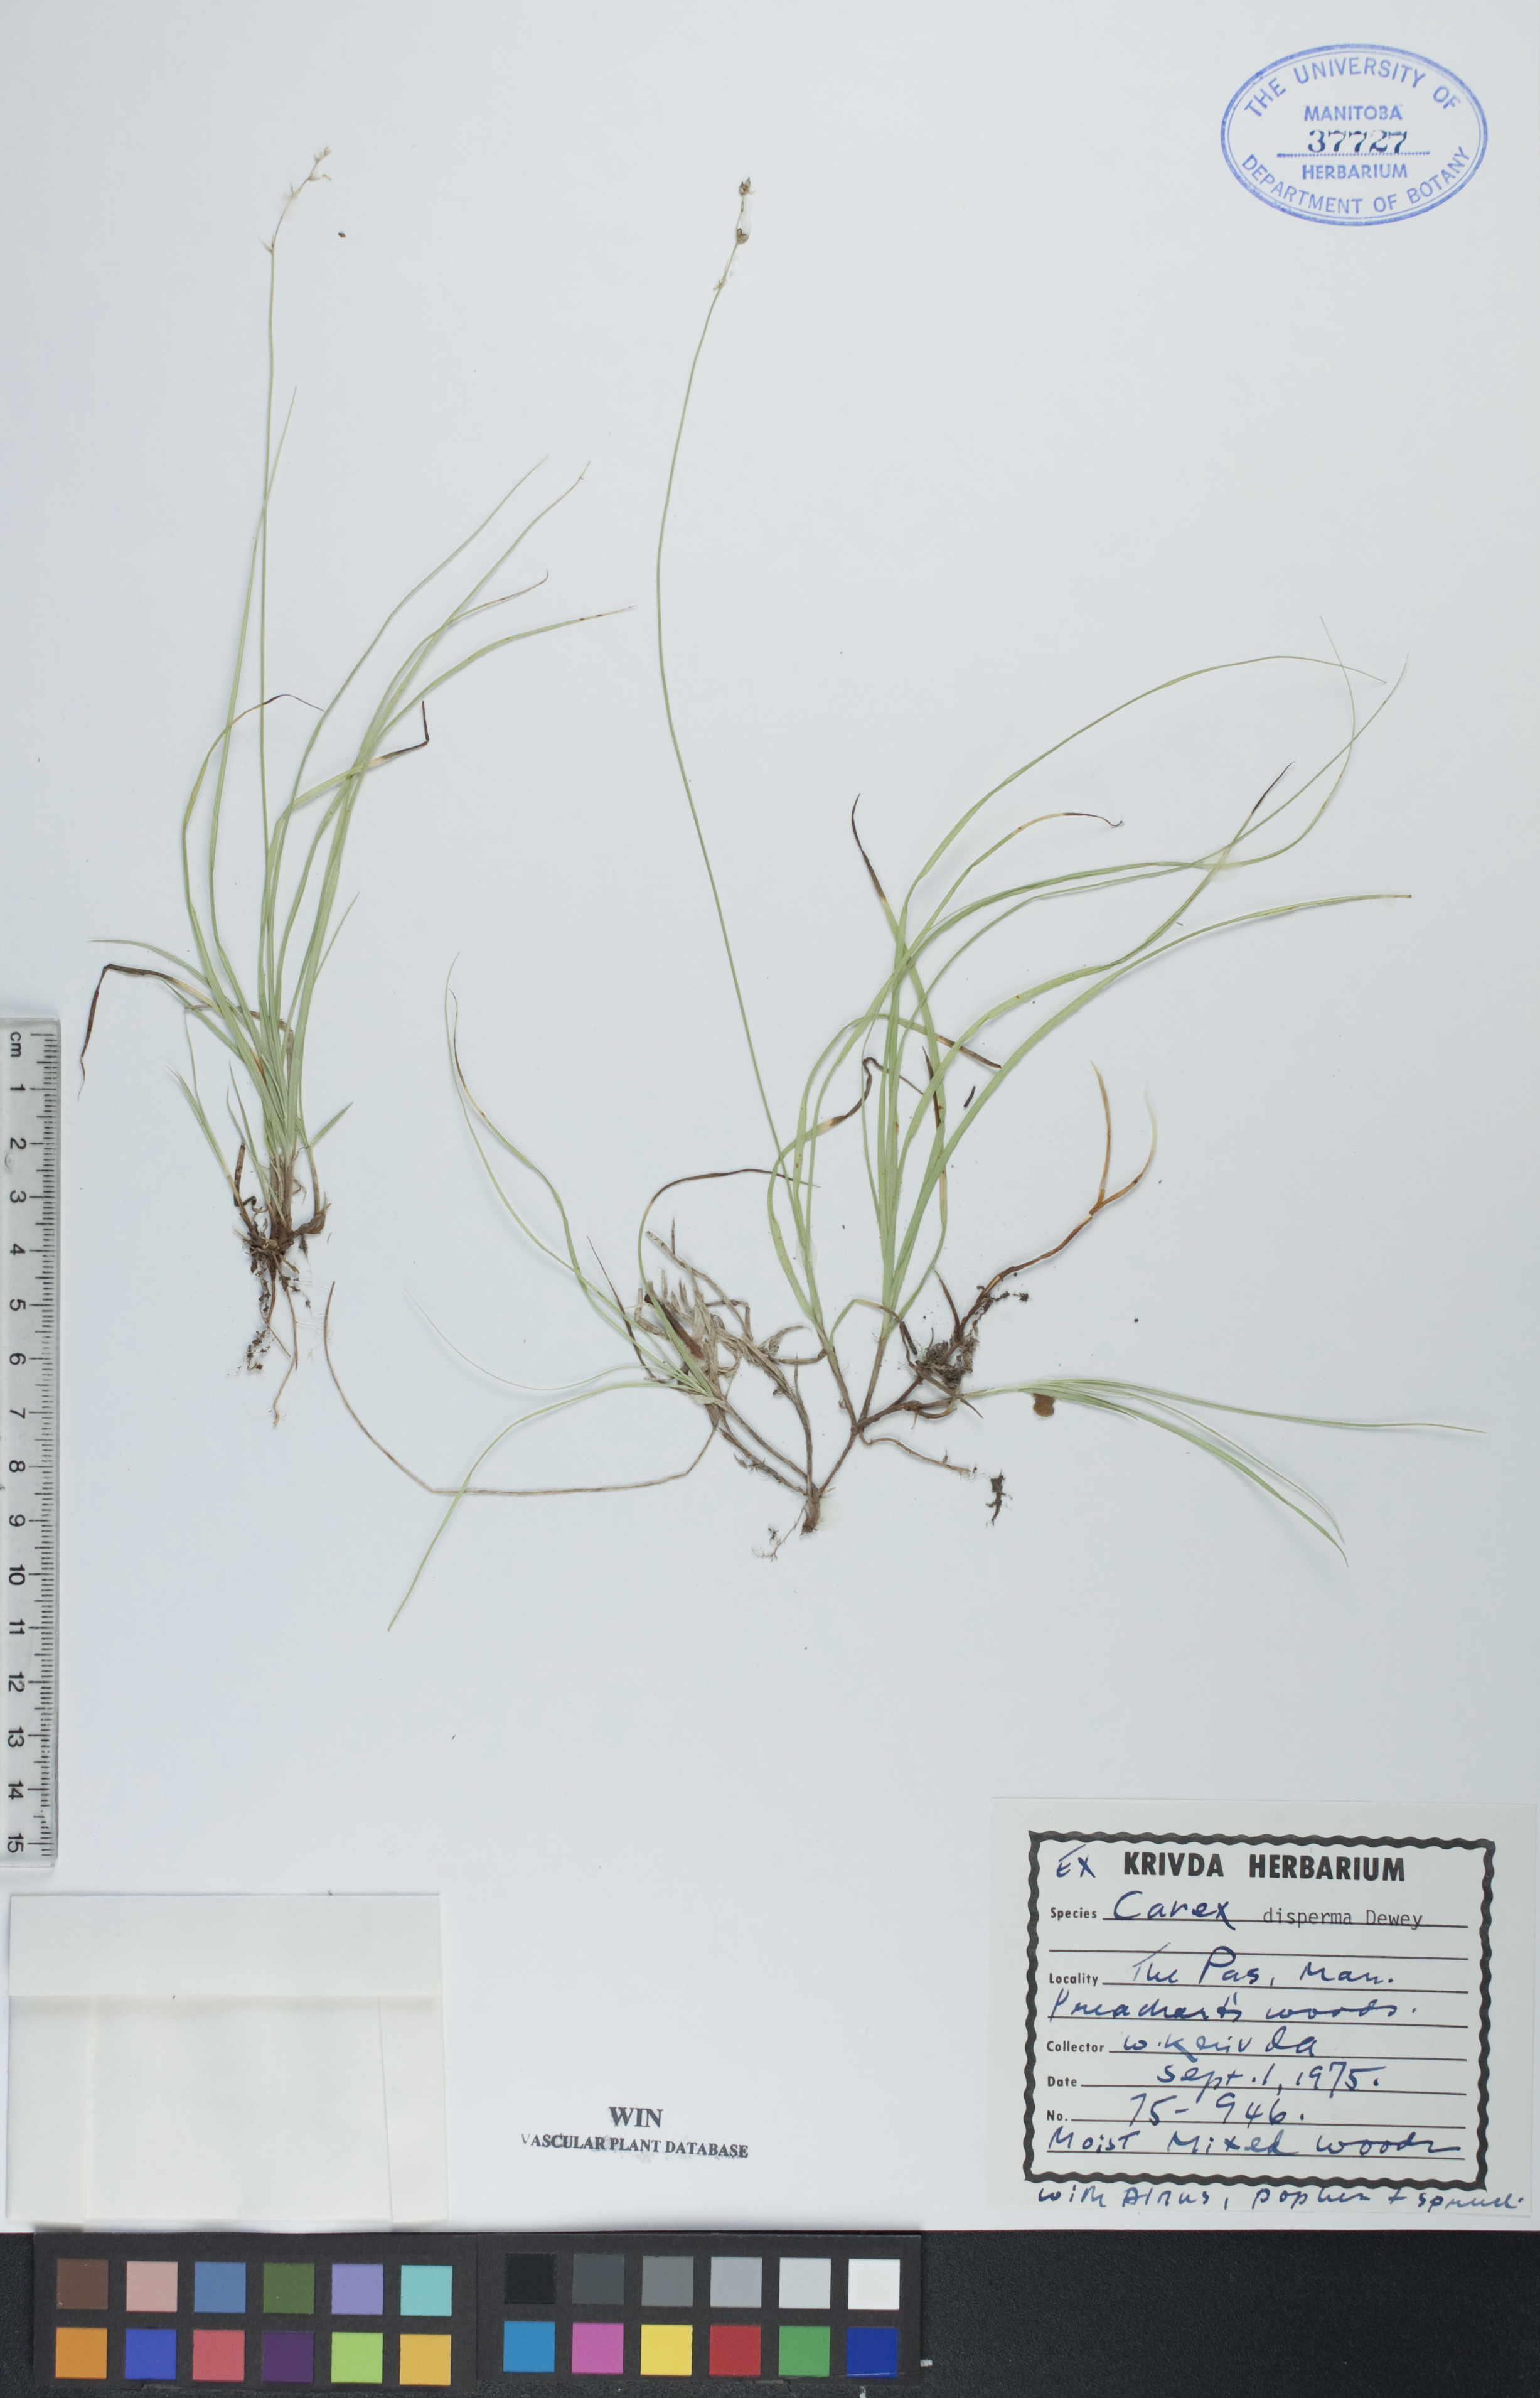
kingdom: Plantae
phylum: Tracheophyta
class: Liliopsida
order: Poales
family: Cyperaceae
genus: Carex
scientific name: Carex disperma
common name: Short-leaved sedge
